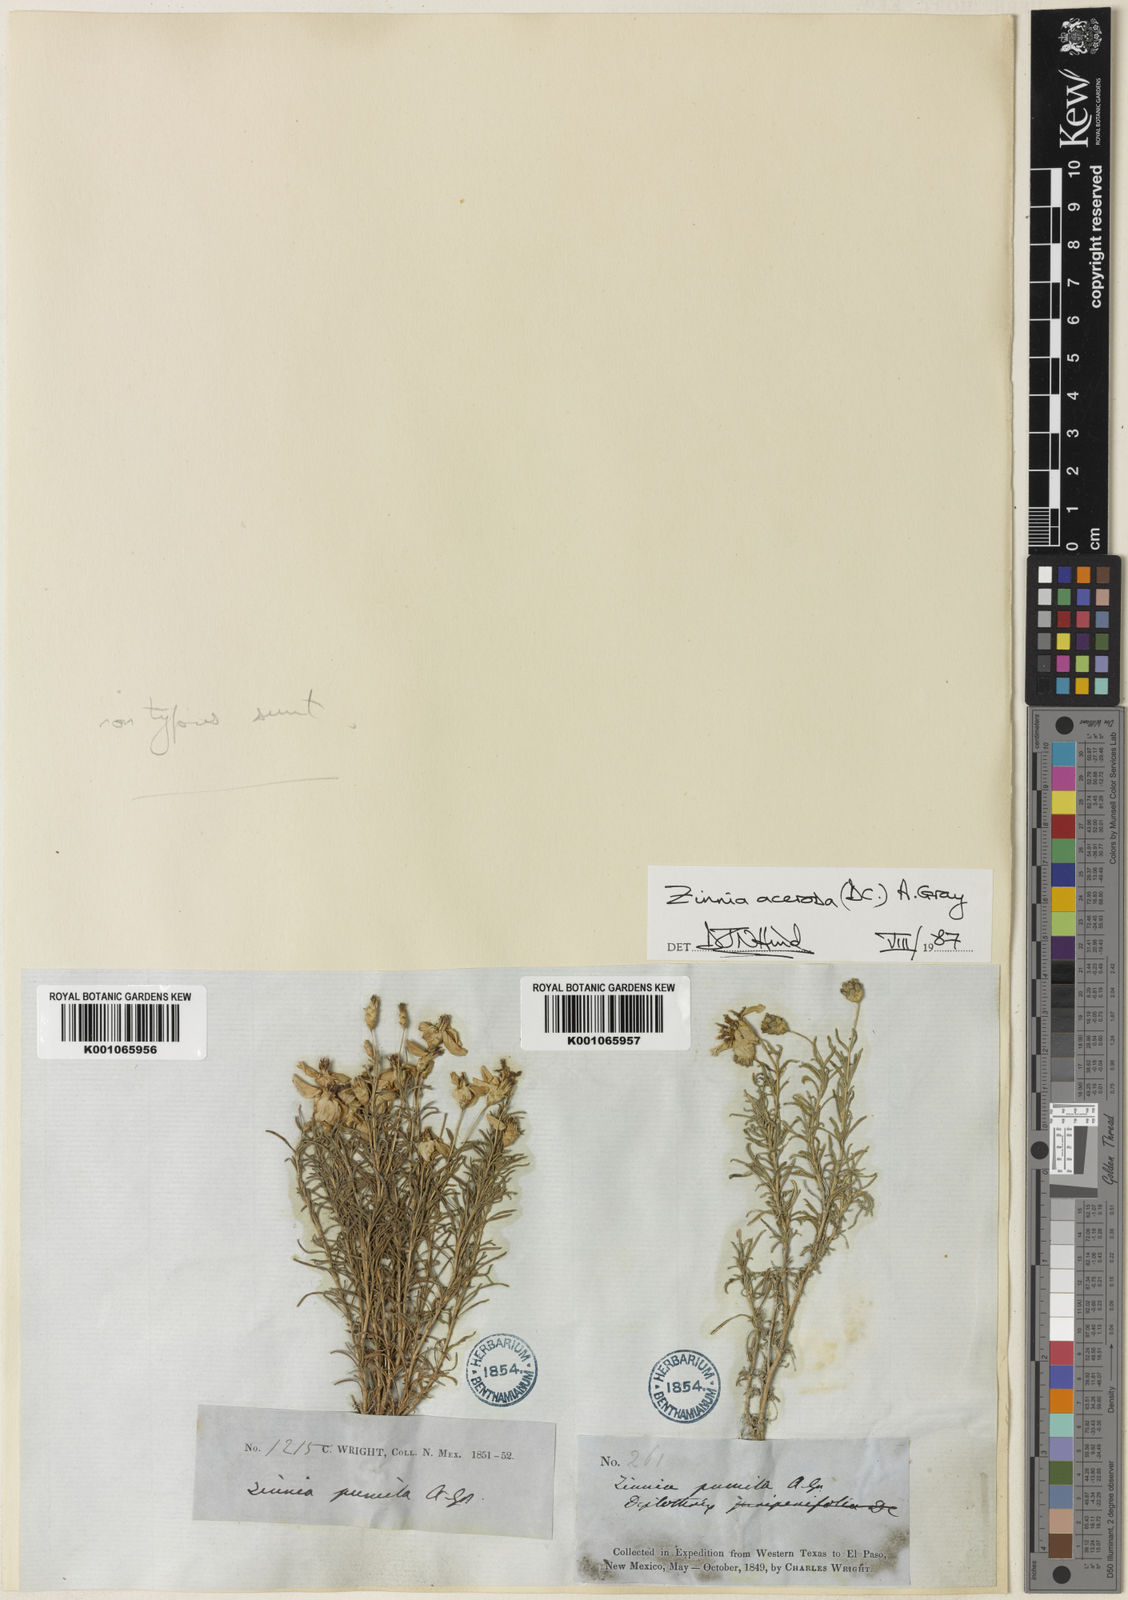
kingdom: Plantae
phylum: Tracheophyta
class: Magnoliopsida
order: Asterales
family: Asteraceae
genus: Zinnia
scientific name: Zinnia acerosa
